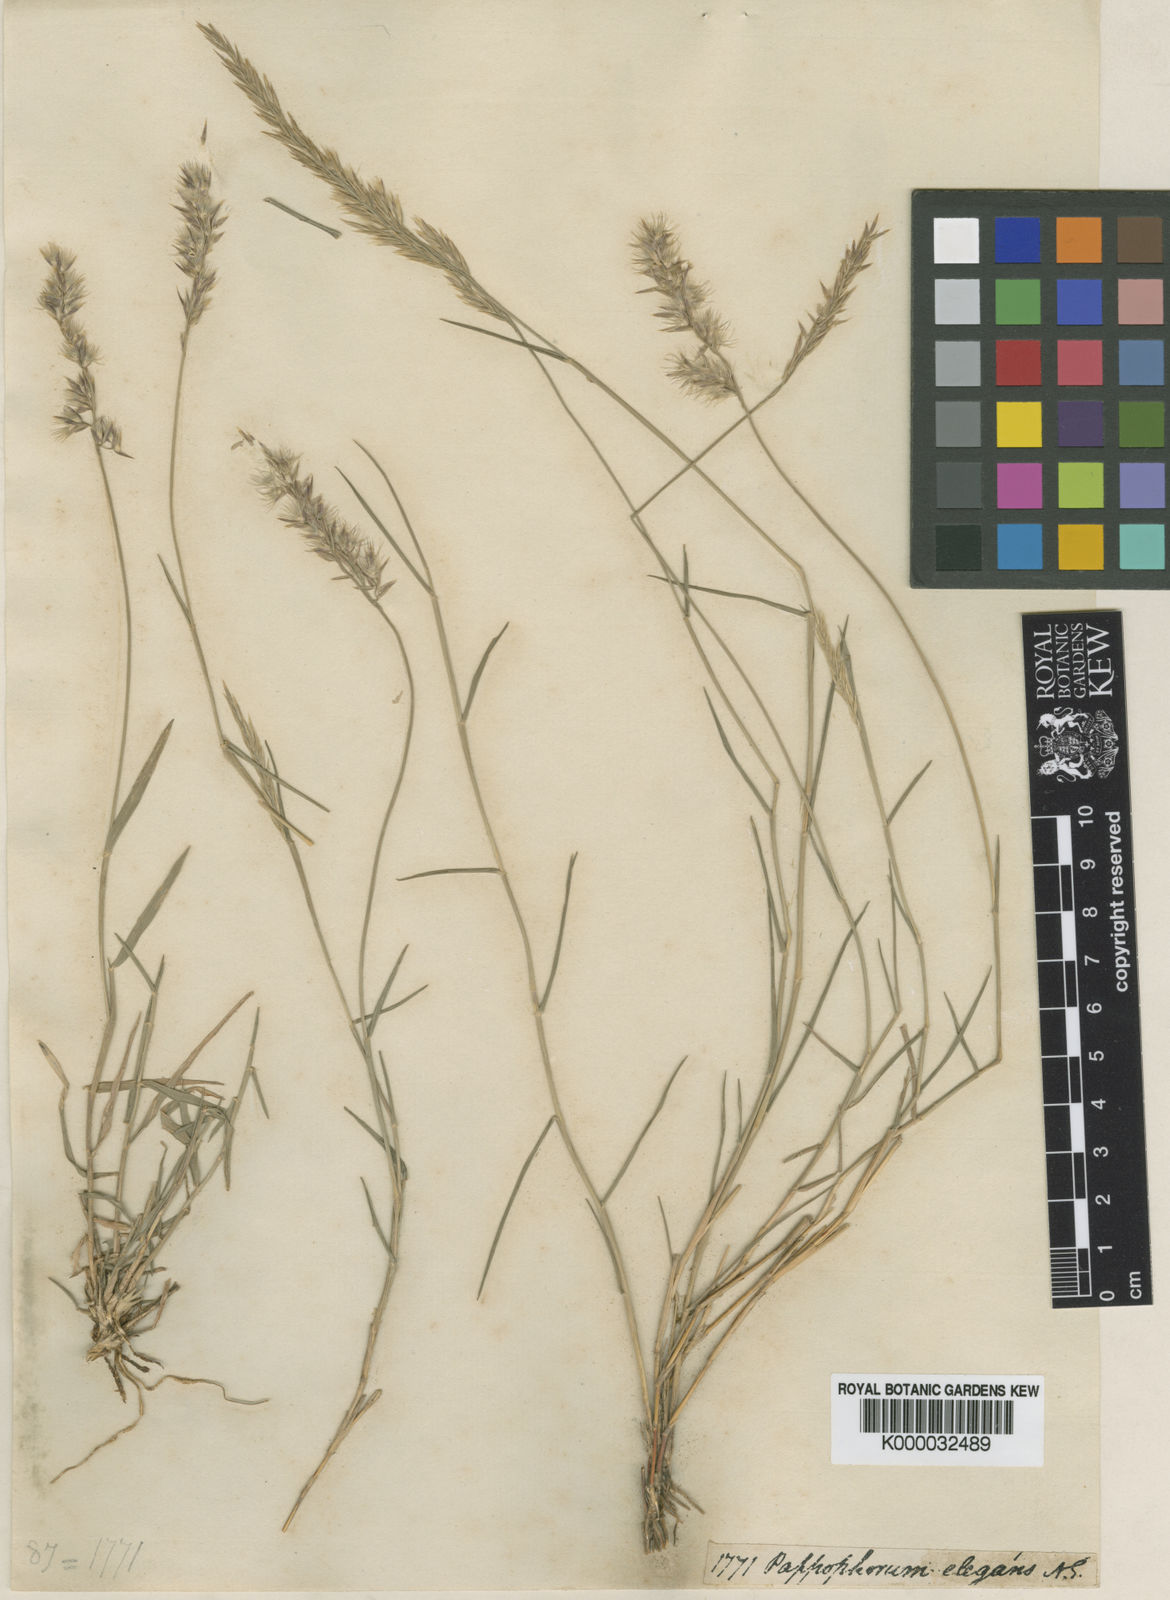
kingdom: Plantae
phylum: Tracheophyta
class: Liliopsida
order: Poales
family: Poaceae
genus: Enneapogon
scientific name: Enneapogon persicus
